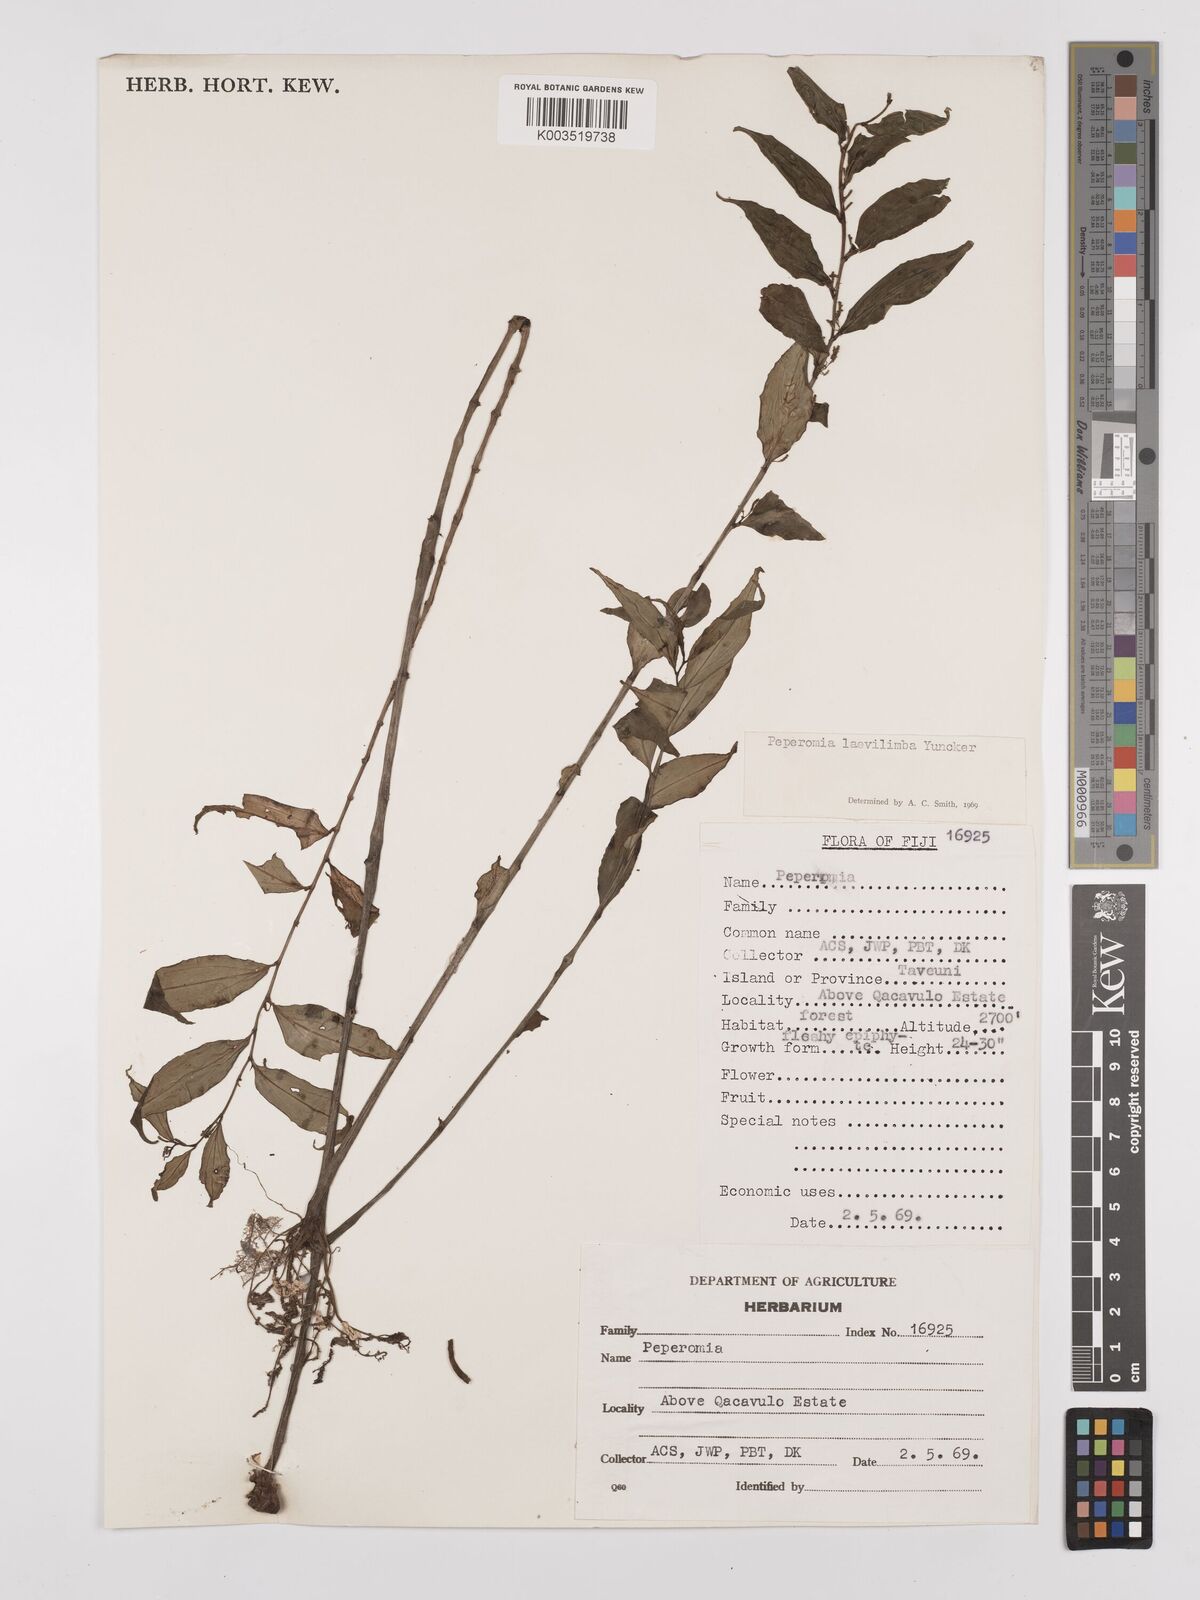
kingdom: Plantae
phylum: Tracheophyta
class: Magnoliopsida
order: Piperales
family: Piperaceae
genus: Peperomia
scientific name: Peperomia laevilimba
